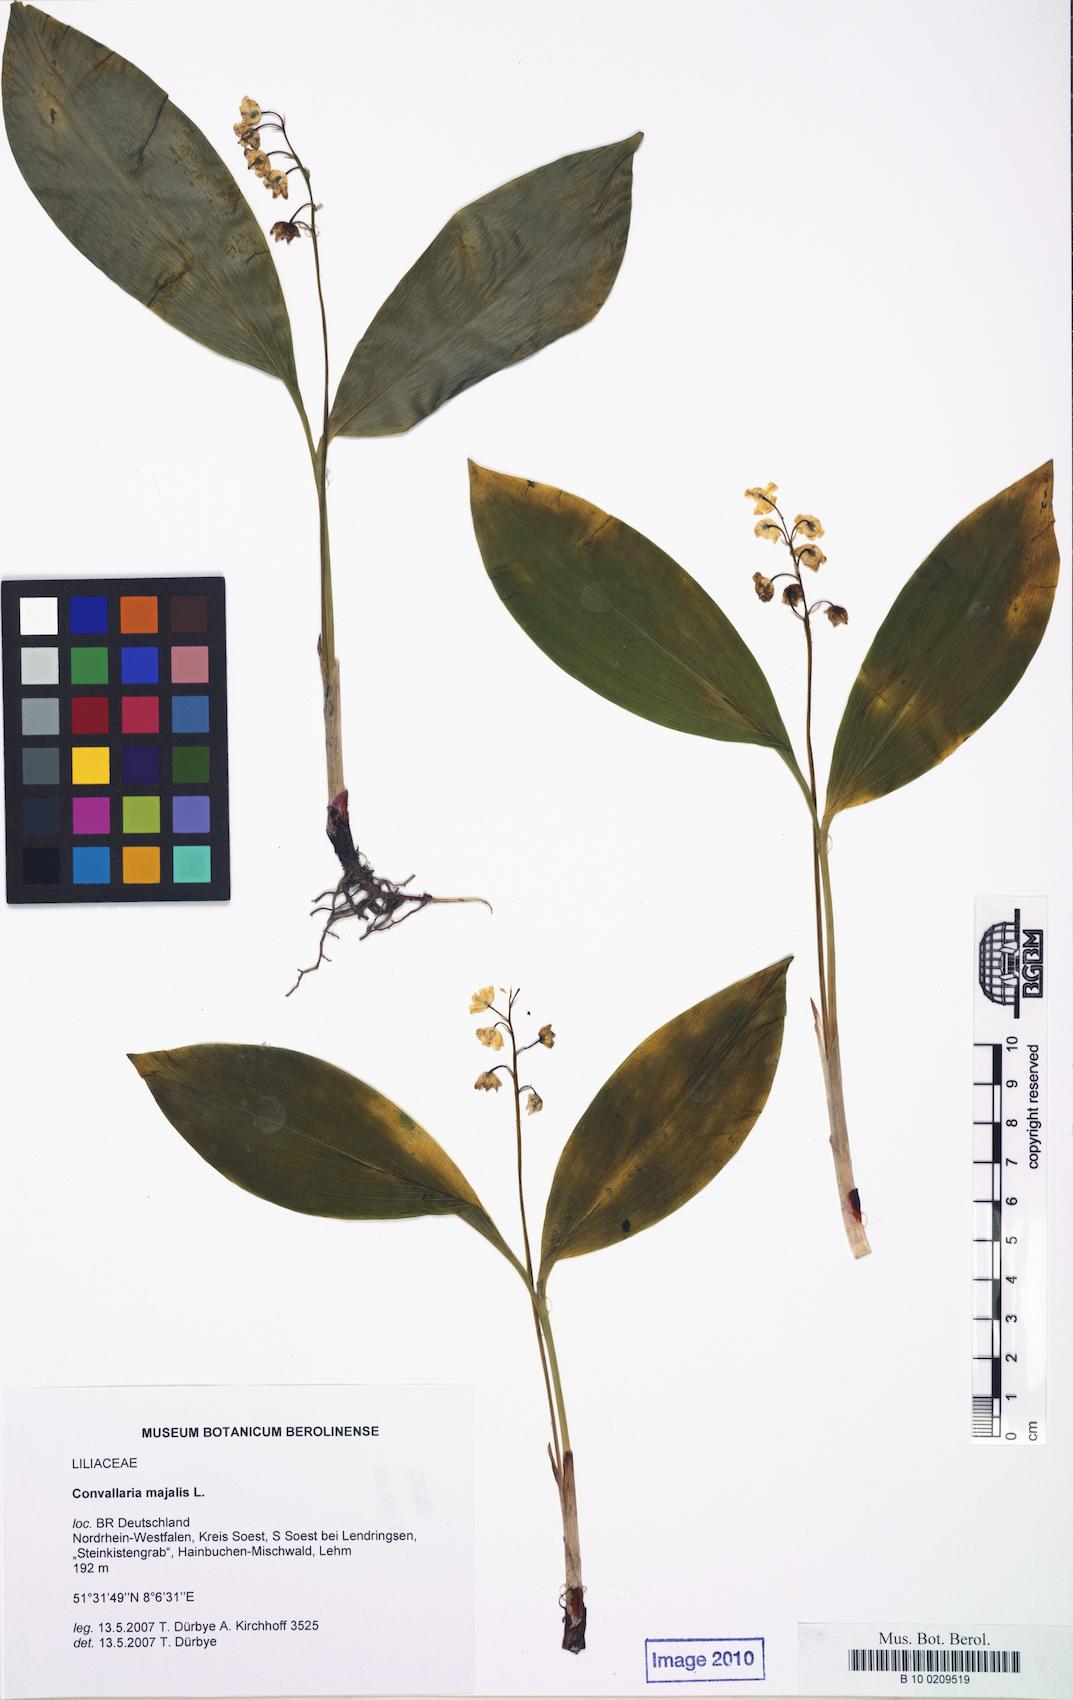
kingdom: Plantae
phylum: Tracheophyta
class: Liliopsida
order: Asparagales
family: Asparagaceae
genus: Convallaria
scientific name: Convallaria majalis
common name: Lily-of-the-valley
